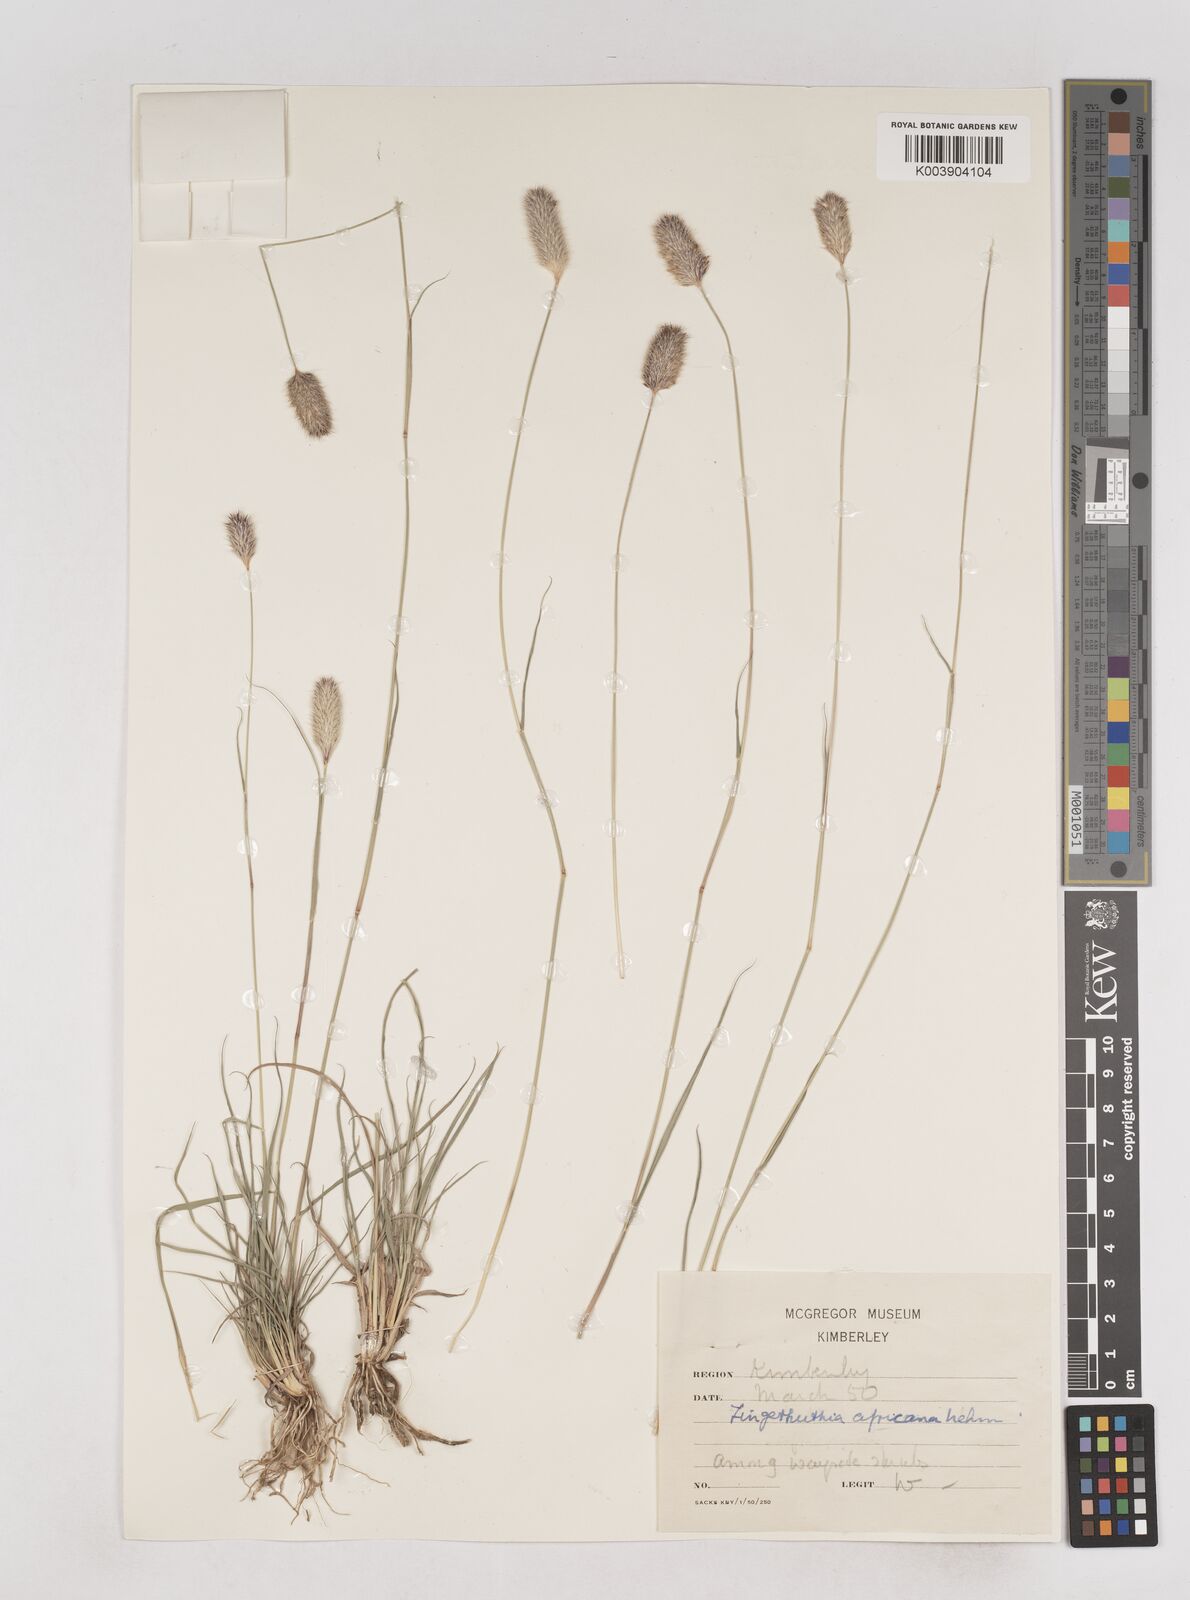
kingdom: Plantae
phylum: Tracheophyta
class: Liliopsida
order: Poales
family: Poaceae
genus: Fingerhuthia
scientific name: Fingerhuthia africana
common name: Zulu fescue
